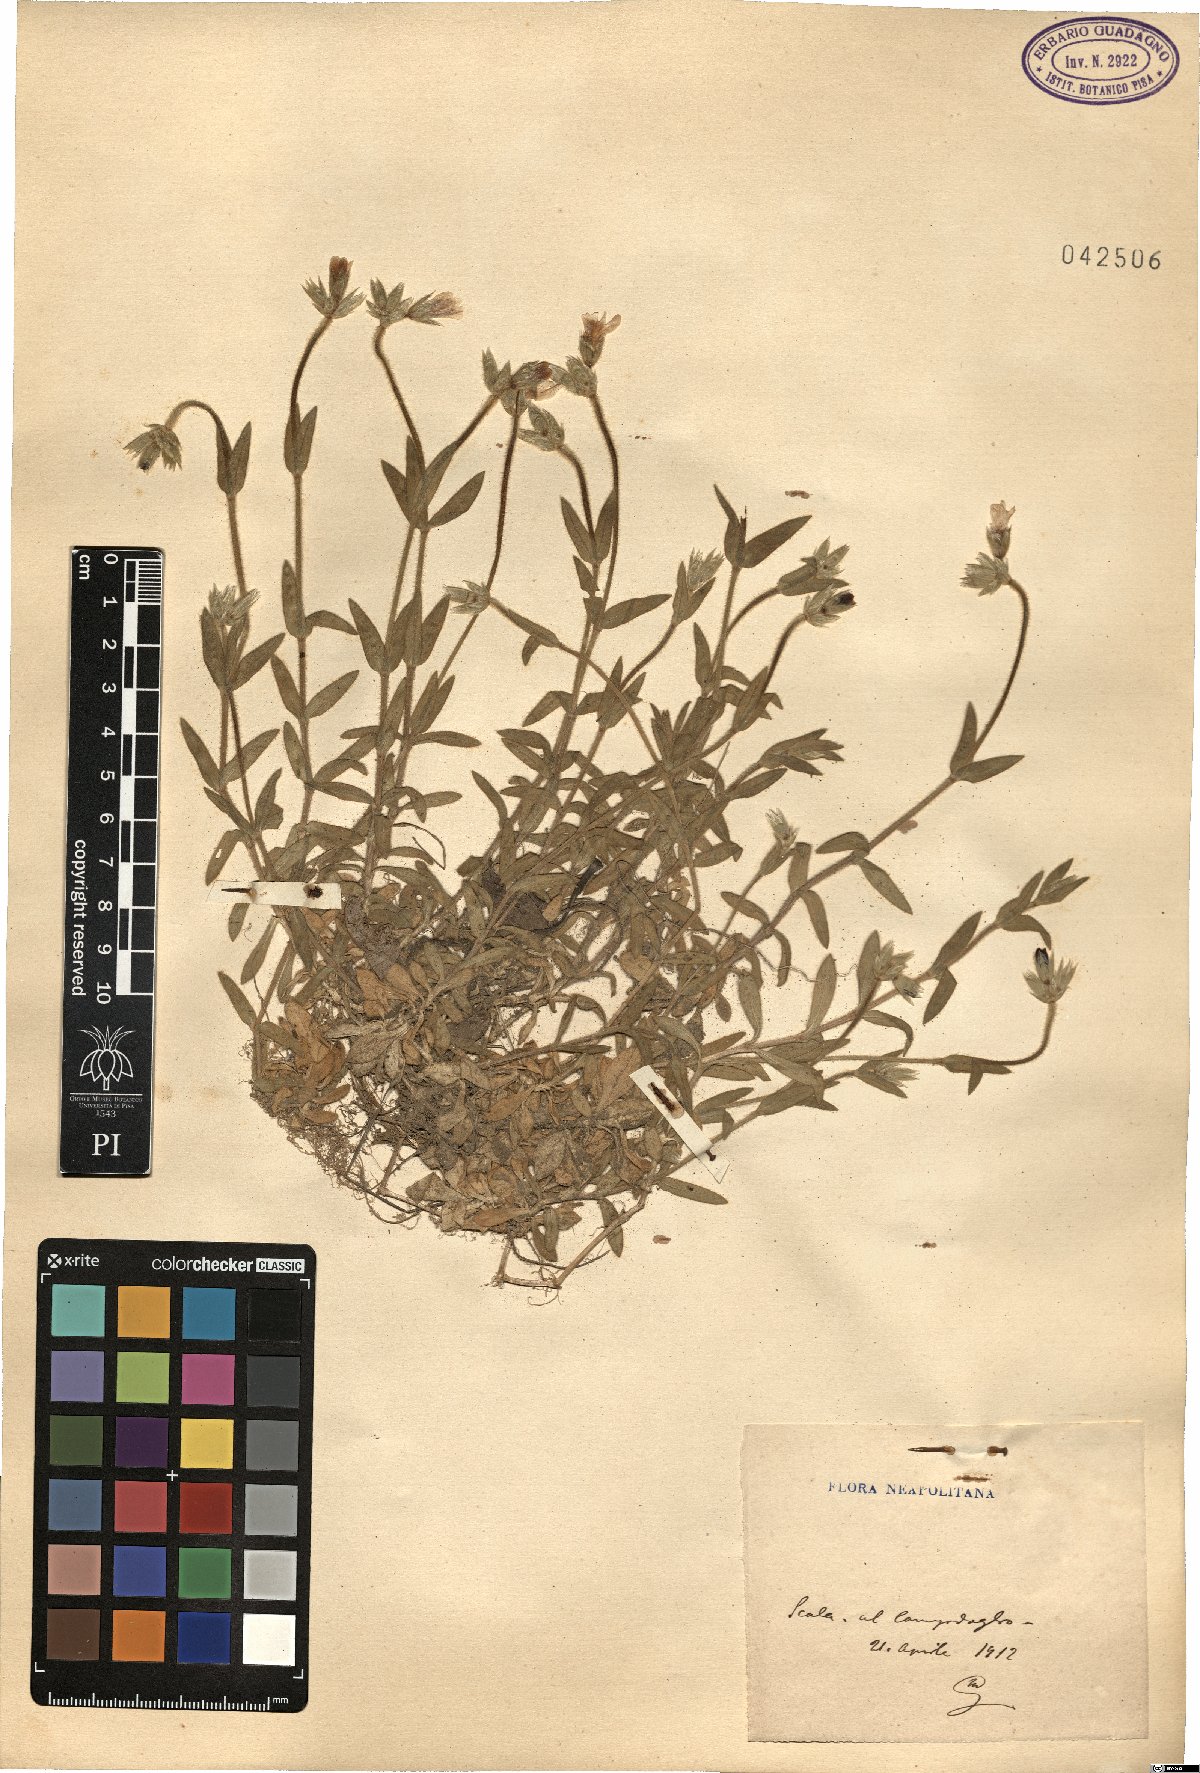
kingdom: Plantae
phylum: Tracheophyta
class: Magnoliopsida
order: Caryophyllales
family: Caryophyllaceae
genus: Cerastium
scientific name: Cerastium
